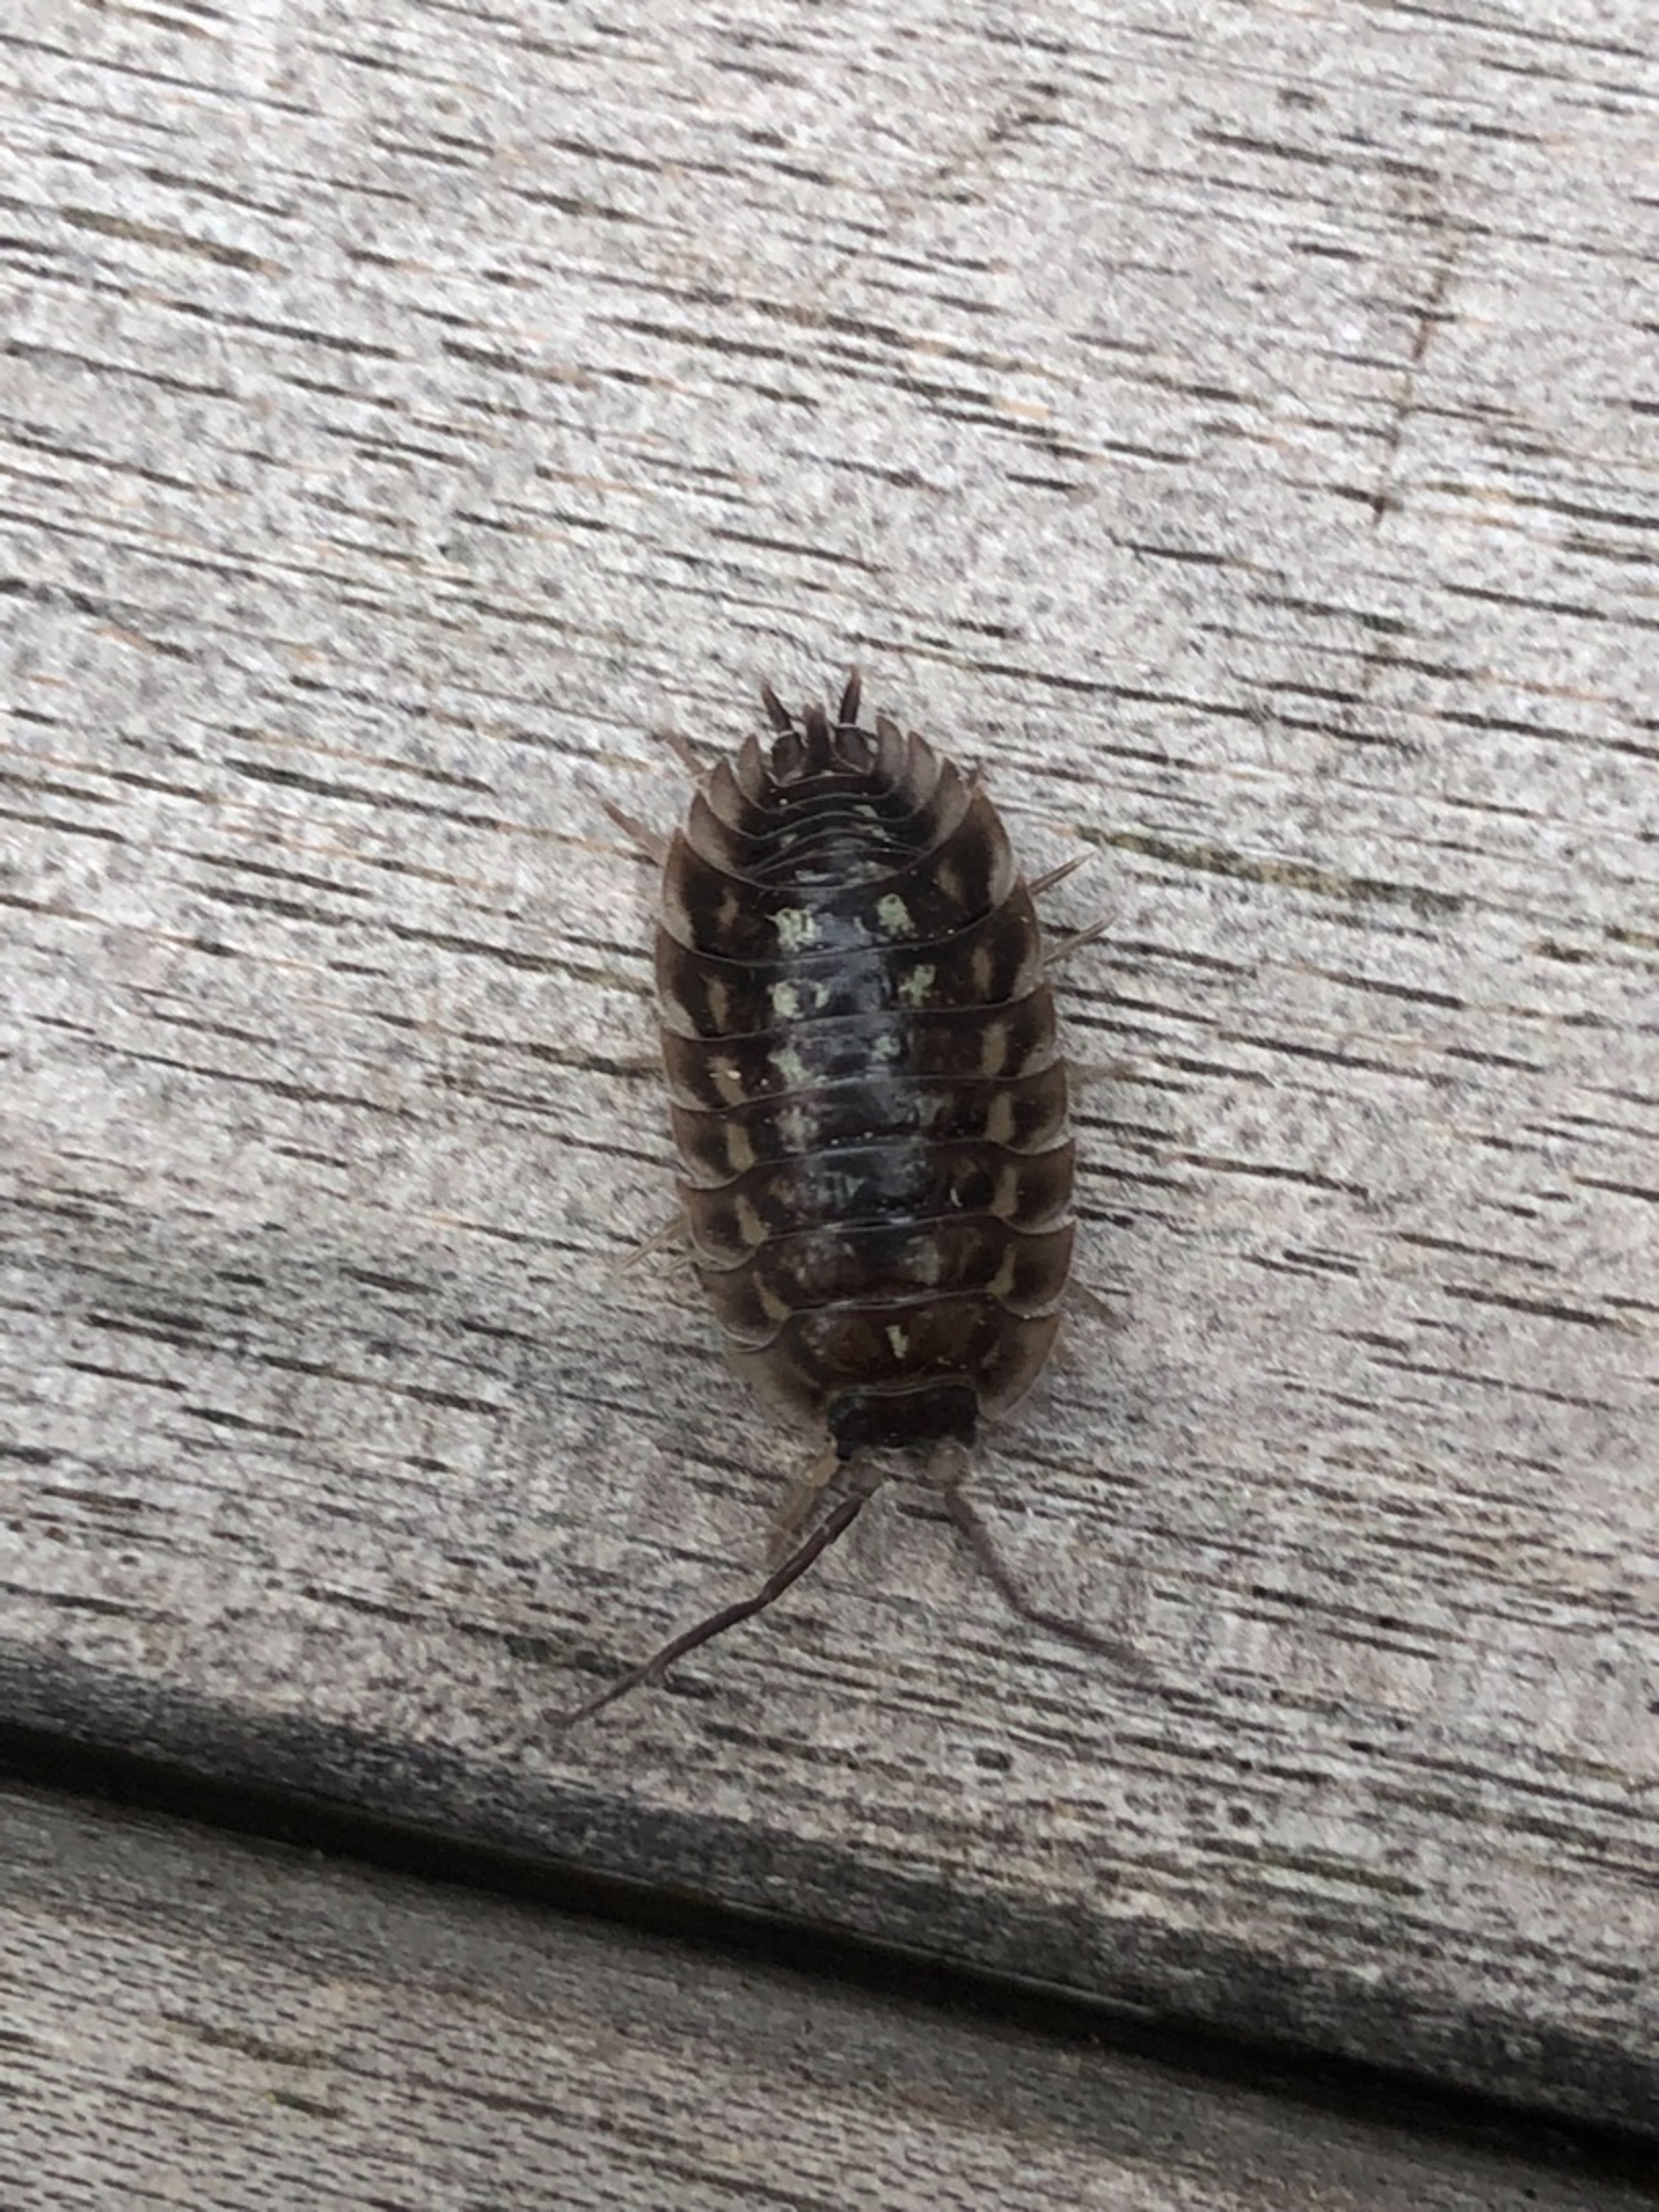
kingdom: Animalia
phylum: Arthropoda
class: Malacostraca
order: Isopoda
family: Oniscidae
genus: Oniscus
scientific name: Oniscus asellus
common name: Glat bænkebider
